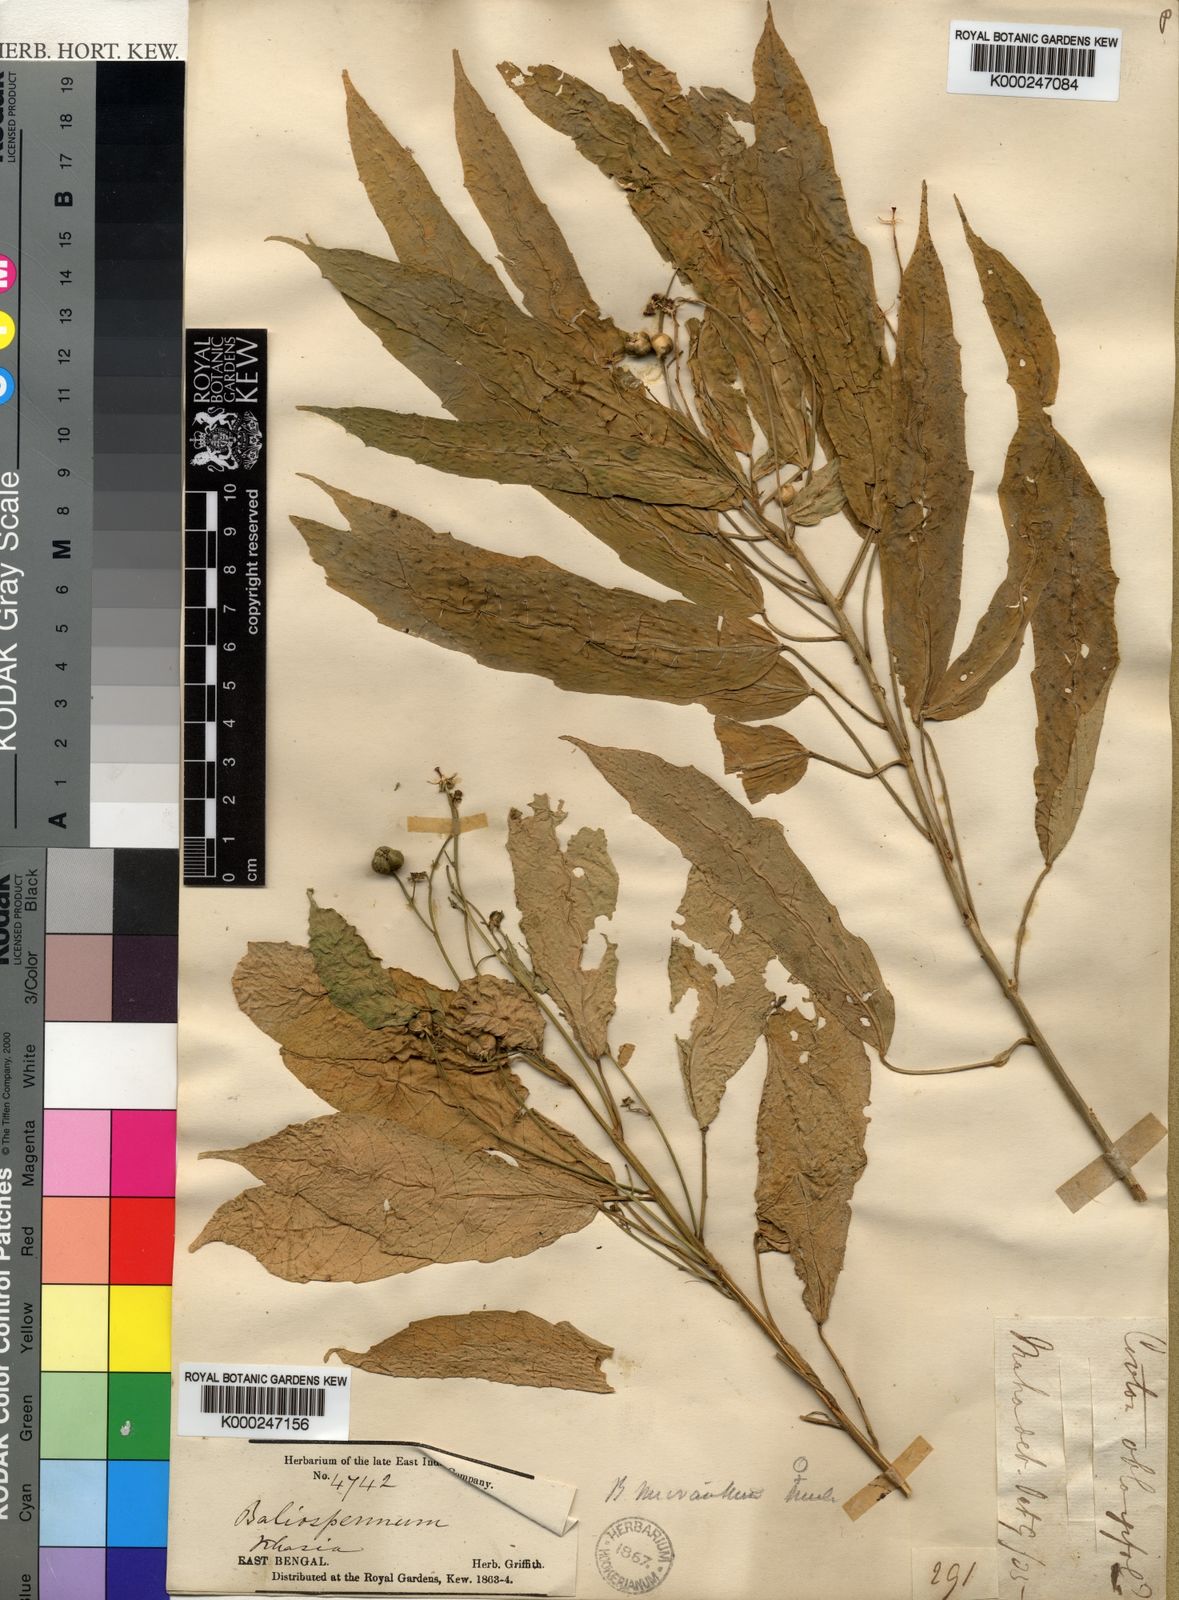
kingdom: Plantae
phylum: Tracheophyta
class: Magnoliopsida
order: Malpighiales
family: Euphorbiaceae
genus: Baliospermum
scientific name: Baliospermum
